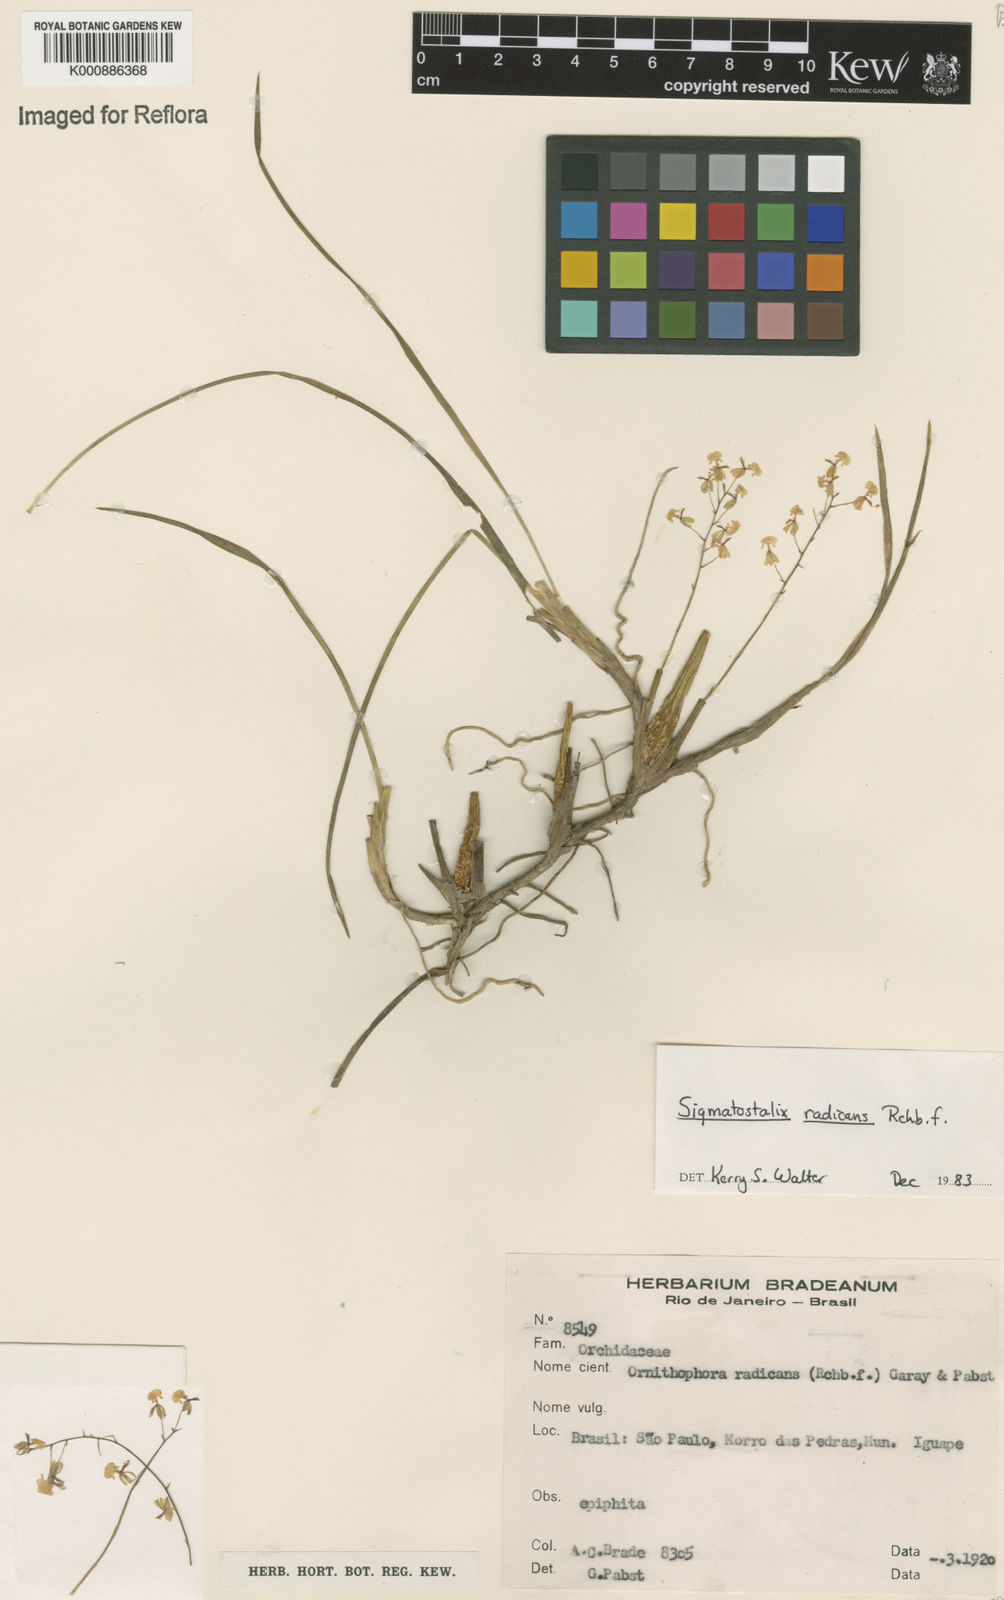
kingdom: Plantae
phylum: Tracheophyta
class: Liliopsida
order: Asparagales
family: Orchidaceae
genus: Gomesa
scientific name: Gomesa radicans
